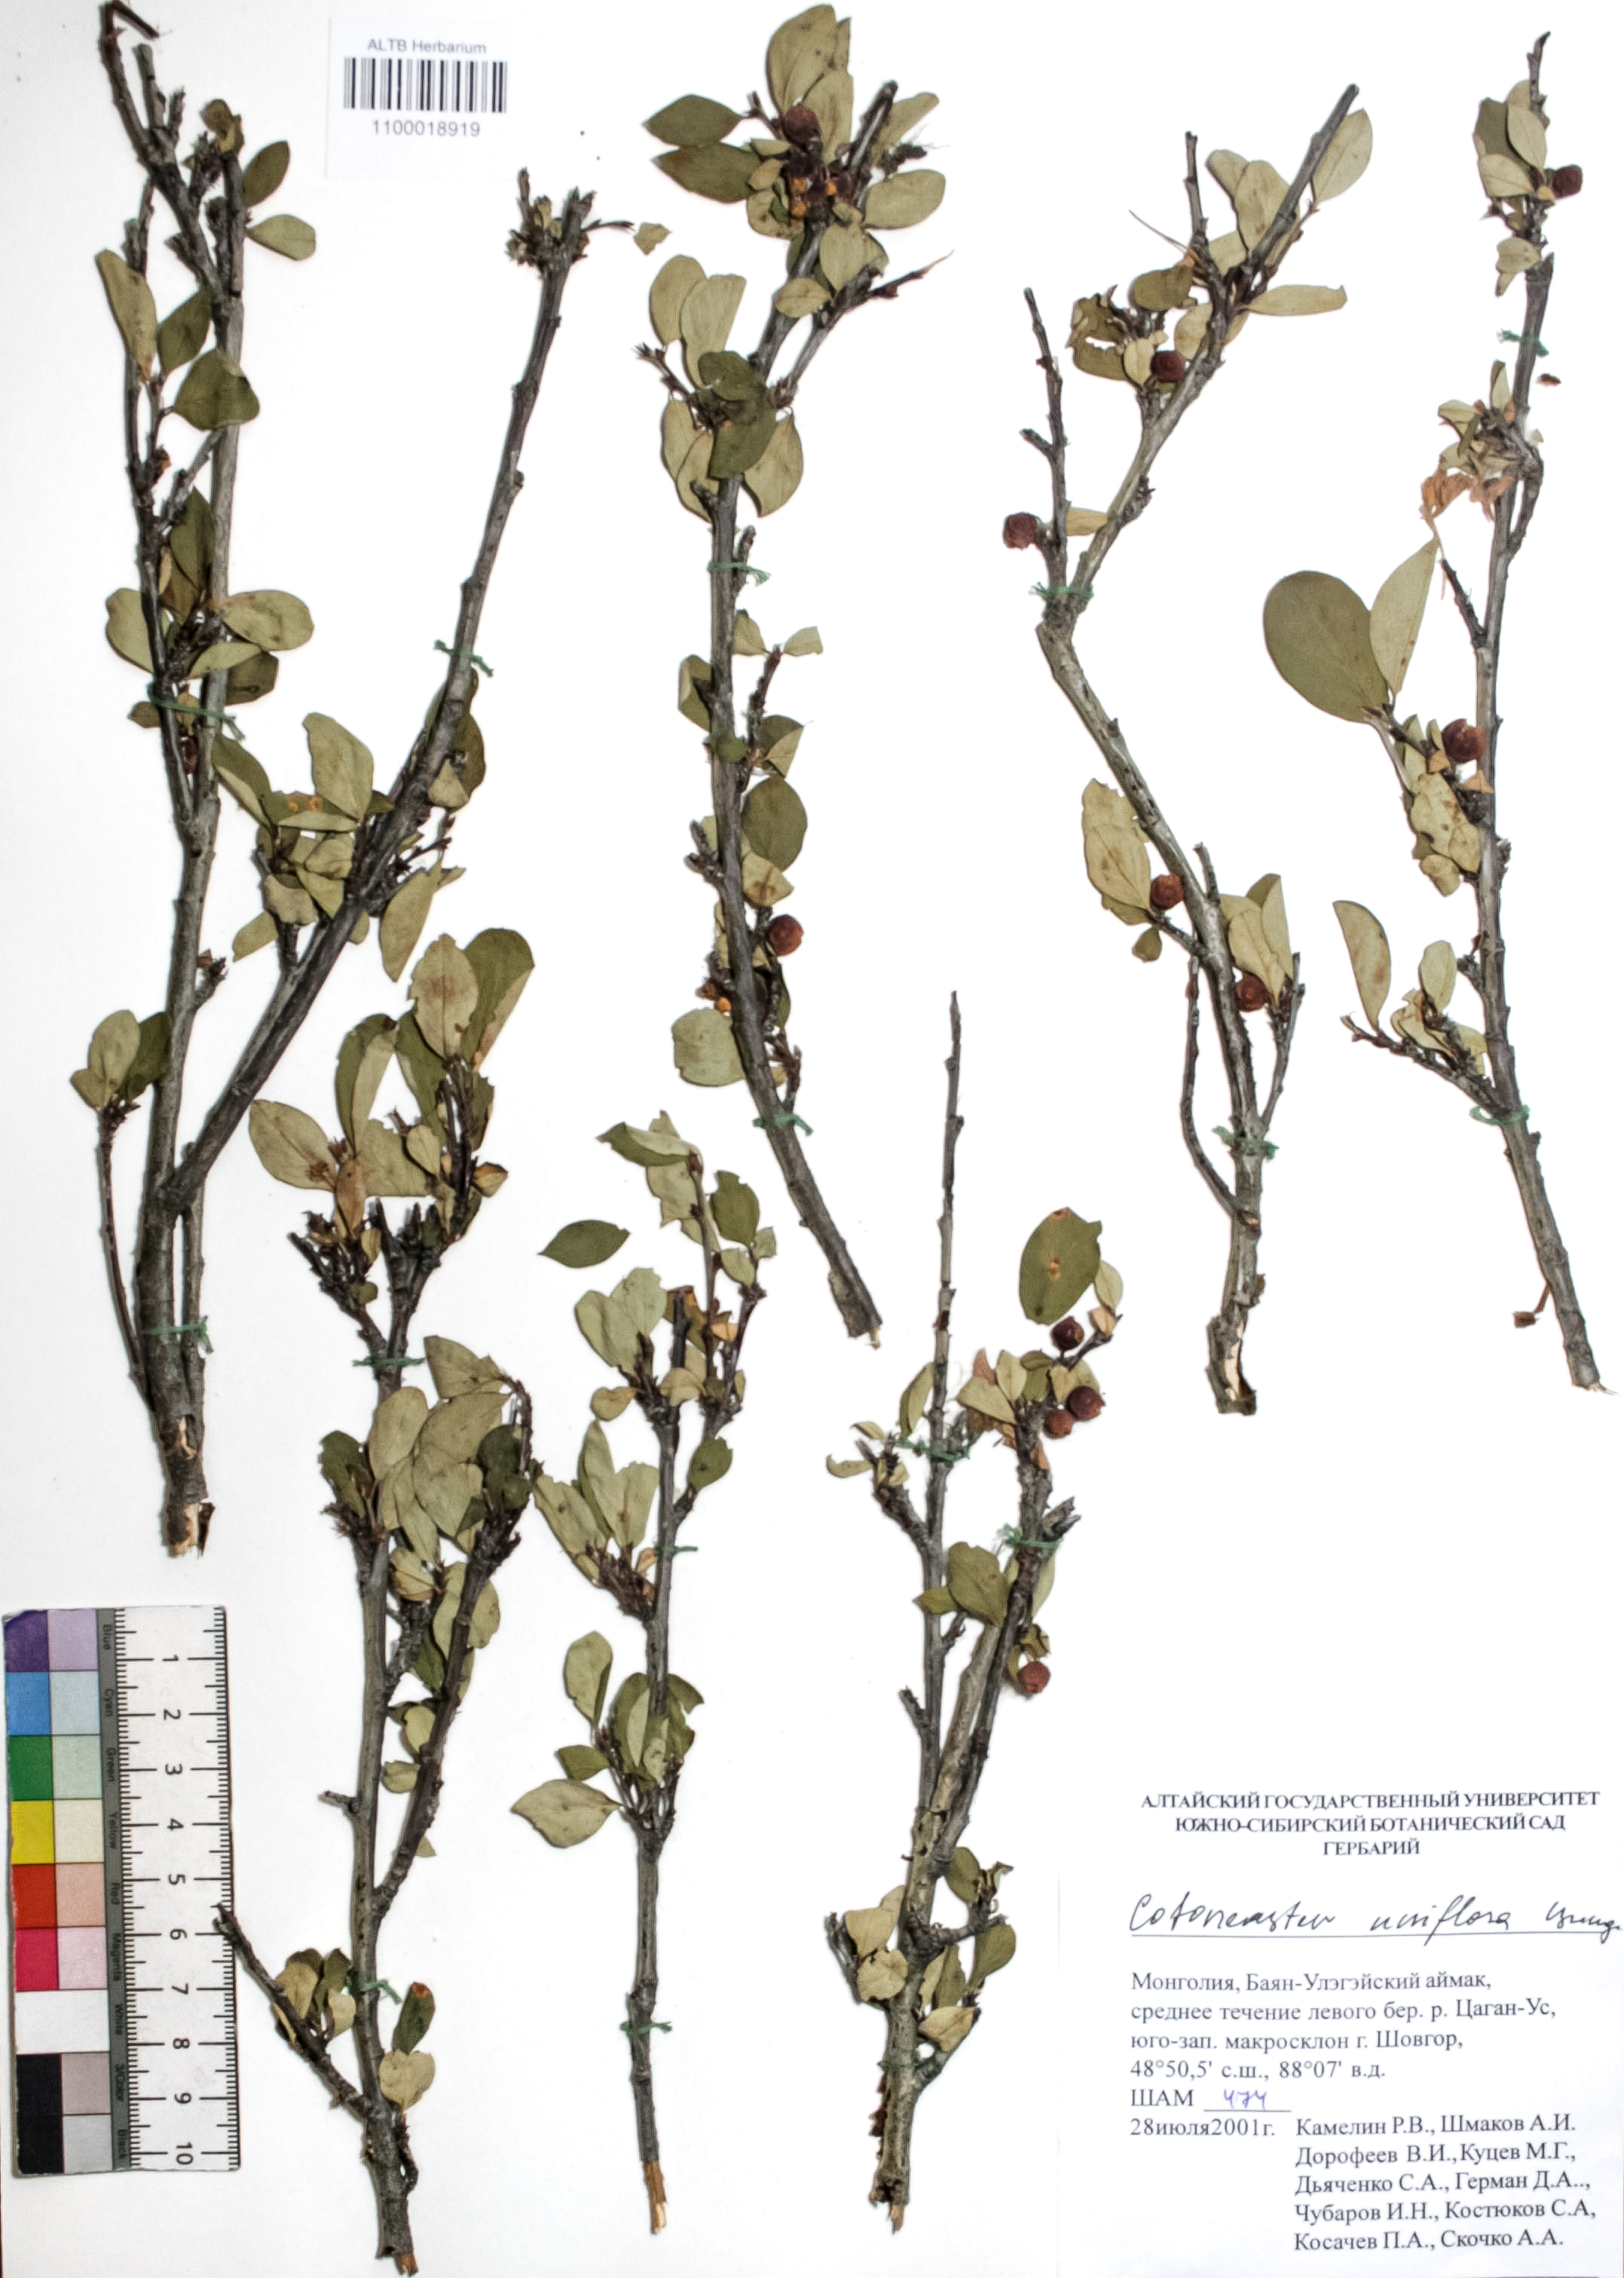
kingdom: Plantae
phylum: Tracheophyta
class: Magnoliopsida
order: Rosales
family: Rosaceae
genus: Cotoneaster
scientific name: Cotoneaster uniflorus
